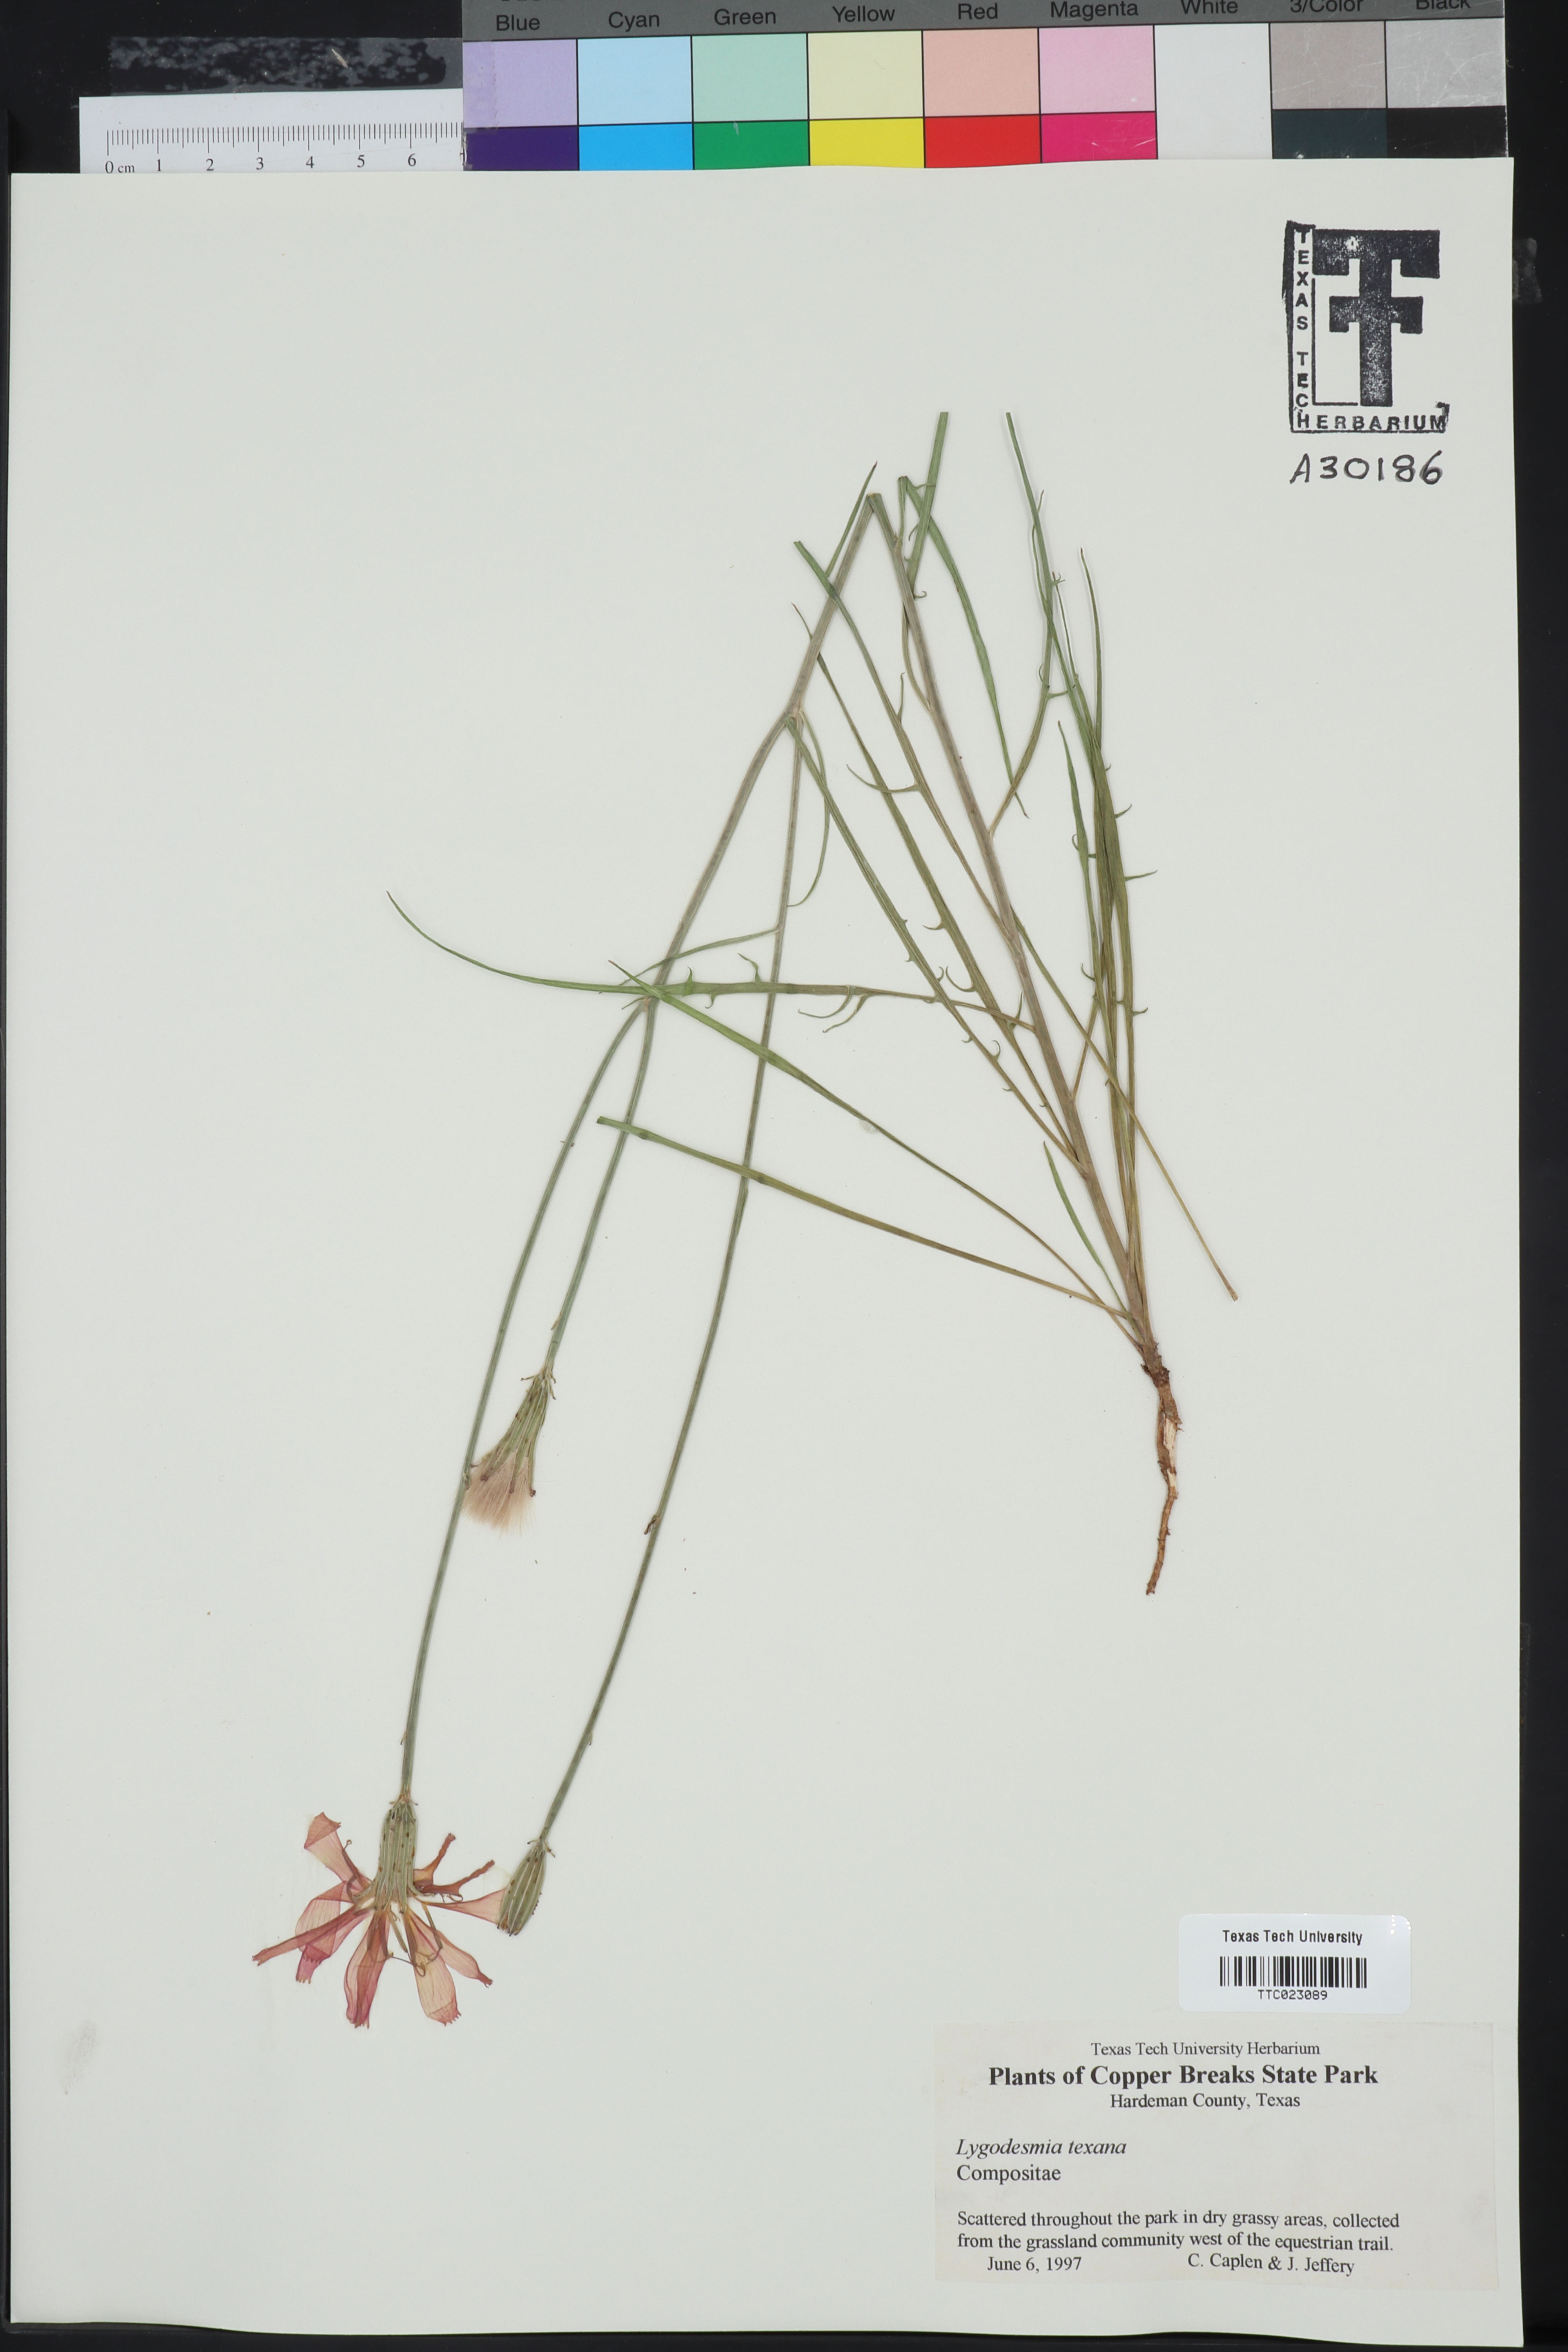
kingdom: Plantae
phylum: Tracheophyta
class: Magnoliopsida
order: Asterales
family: Asteraceae
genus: Lygodesmia
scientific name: Lygodesmia texana
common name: Texas skeleton-plant
